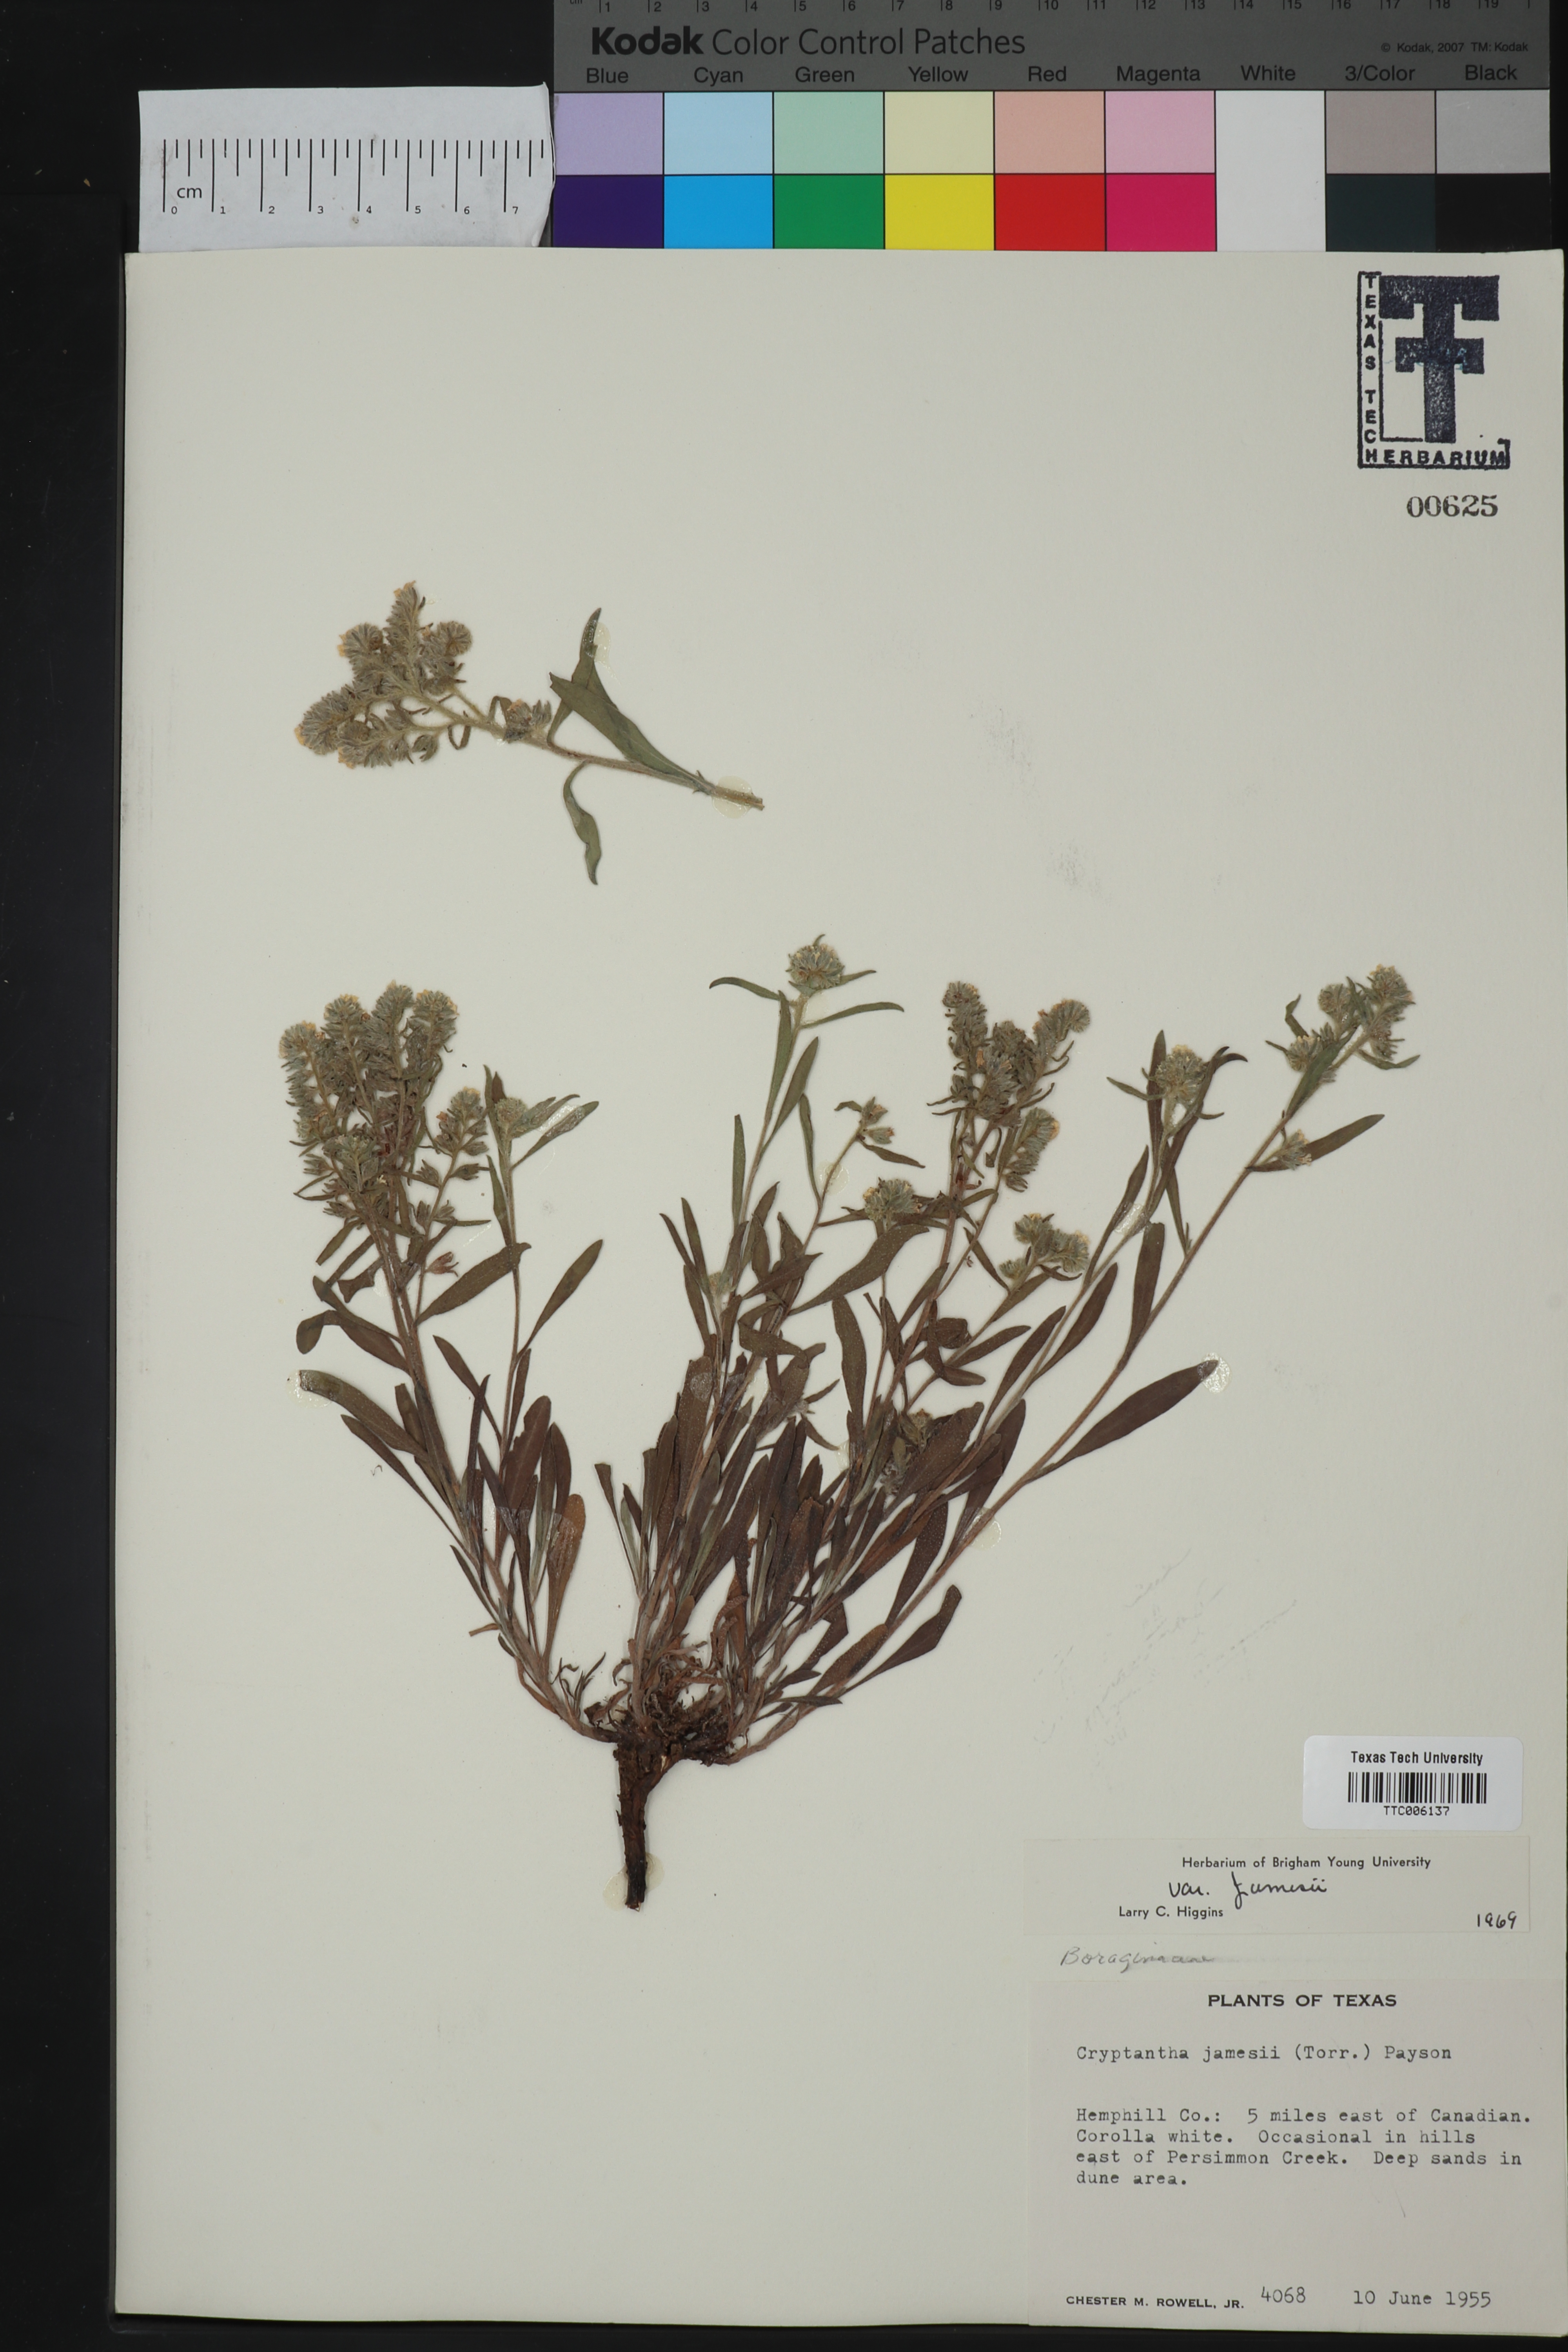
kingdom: Plantae
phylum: Tracheophyta
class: Magnoliopsida
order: Boraginales
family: Boraginaceae
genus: Oreocarya
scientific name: Oreocarya suffruticosa
